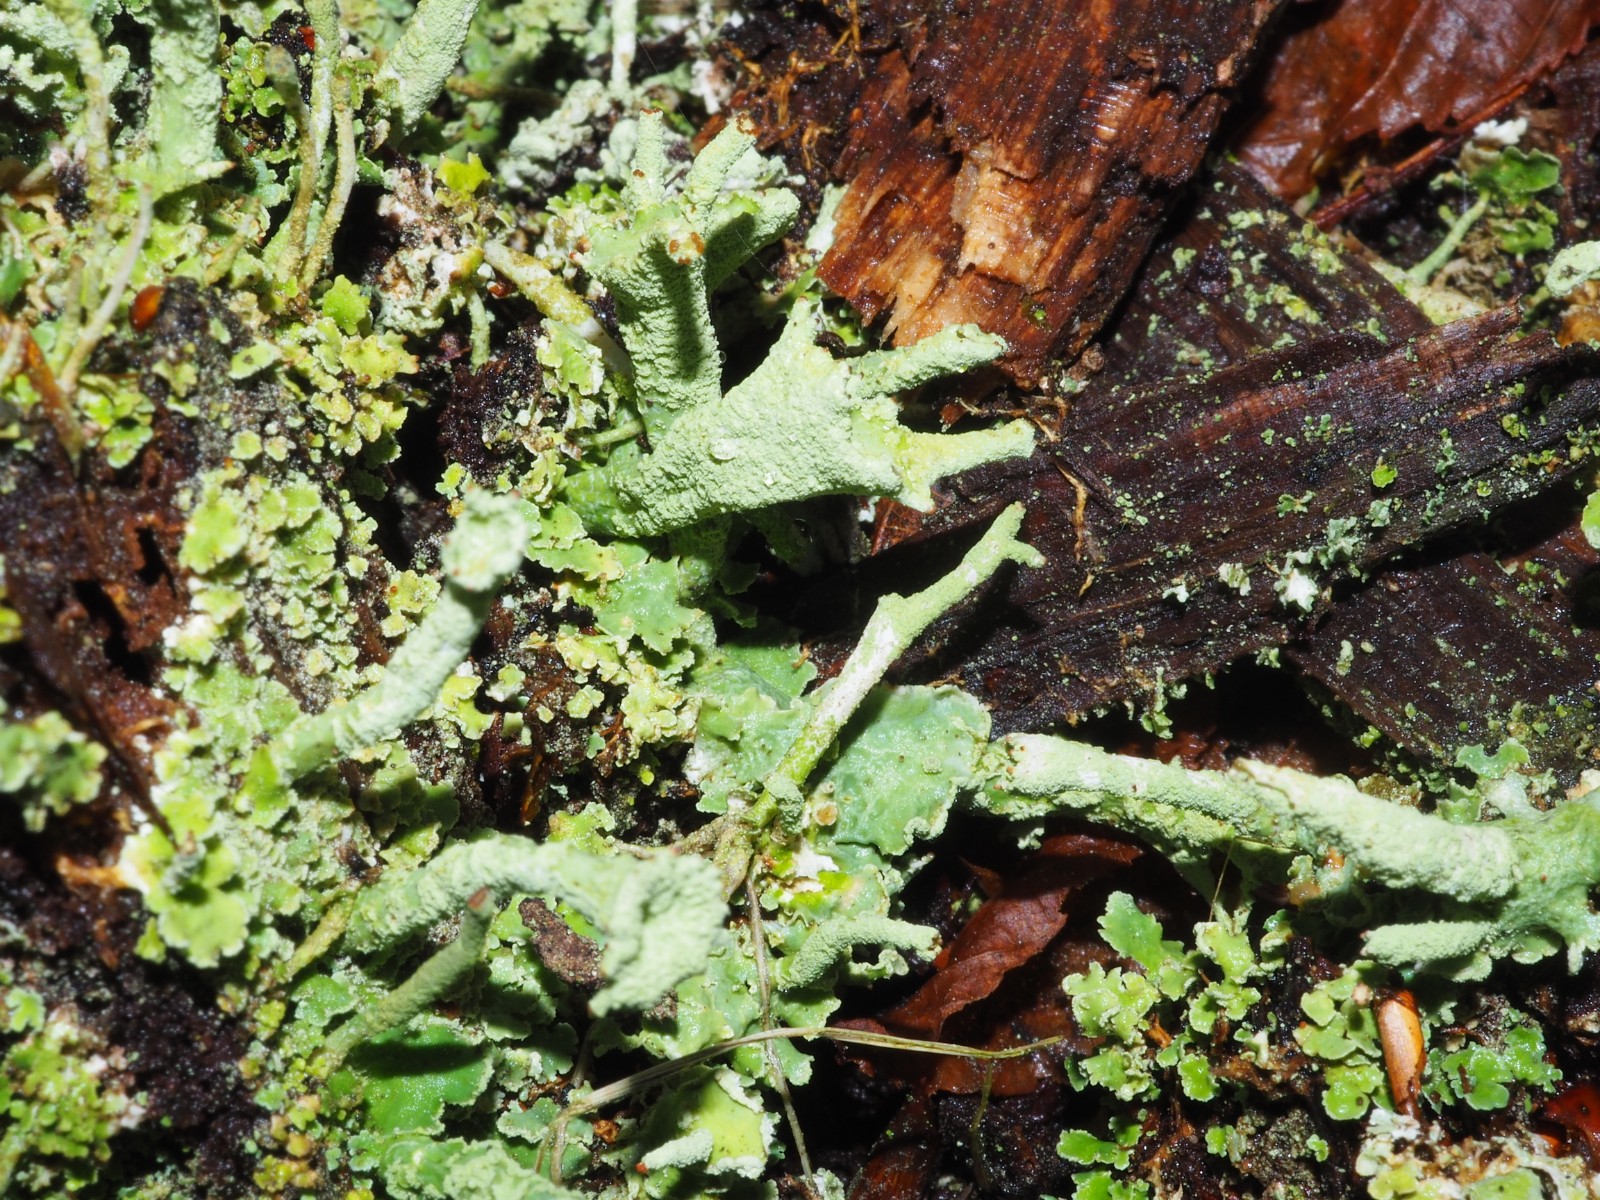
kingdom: Fungi
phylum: Ascomycota
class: Lecanoromycetes
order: Lecanorales
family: Cladoniaceae
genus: Cladonia
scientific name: Cladonia digitata
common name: finger-bægerlav
